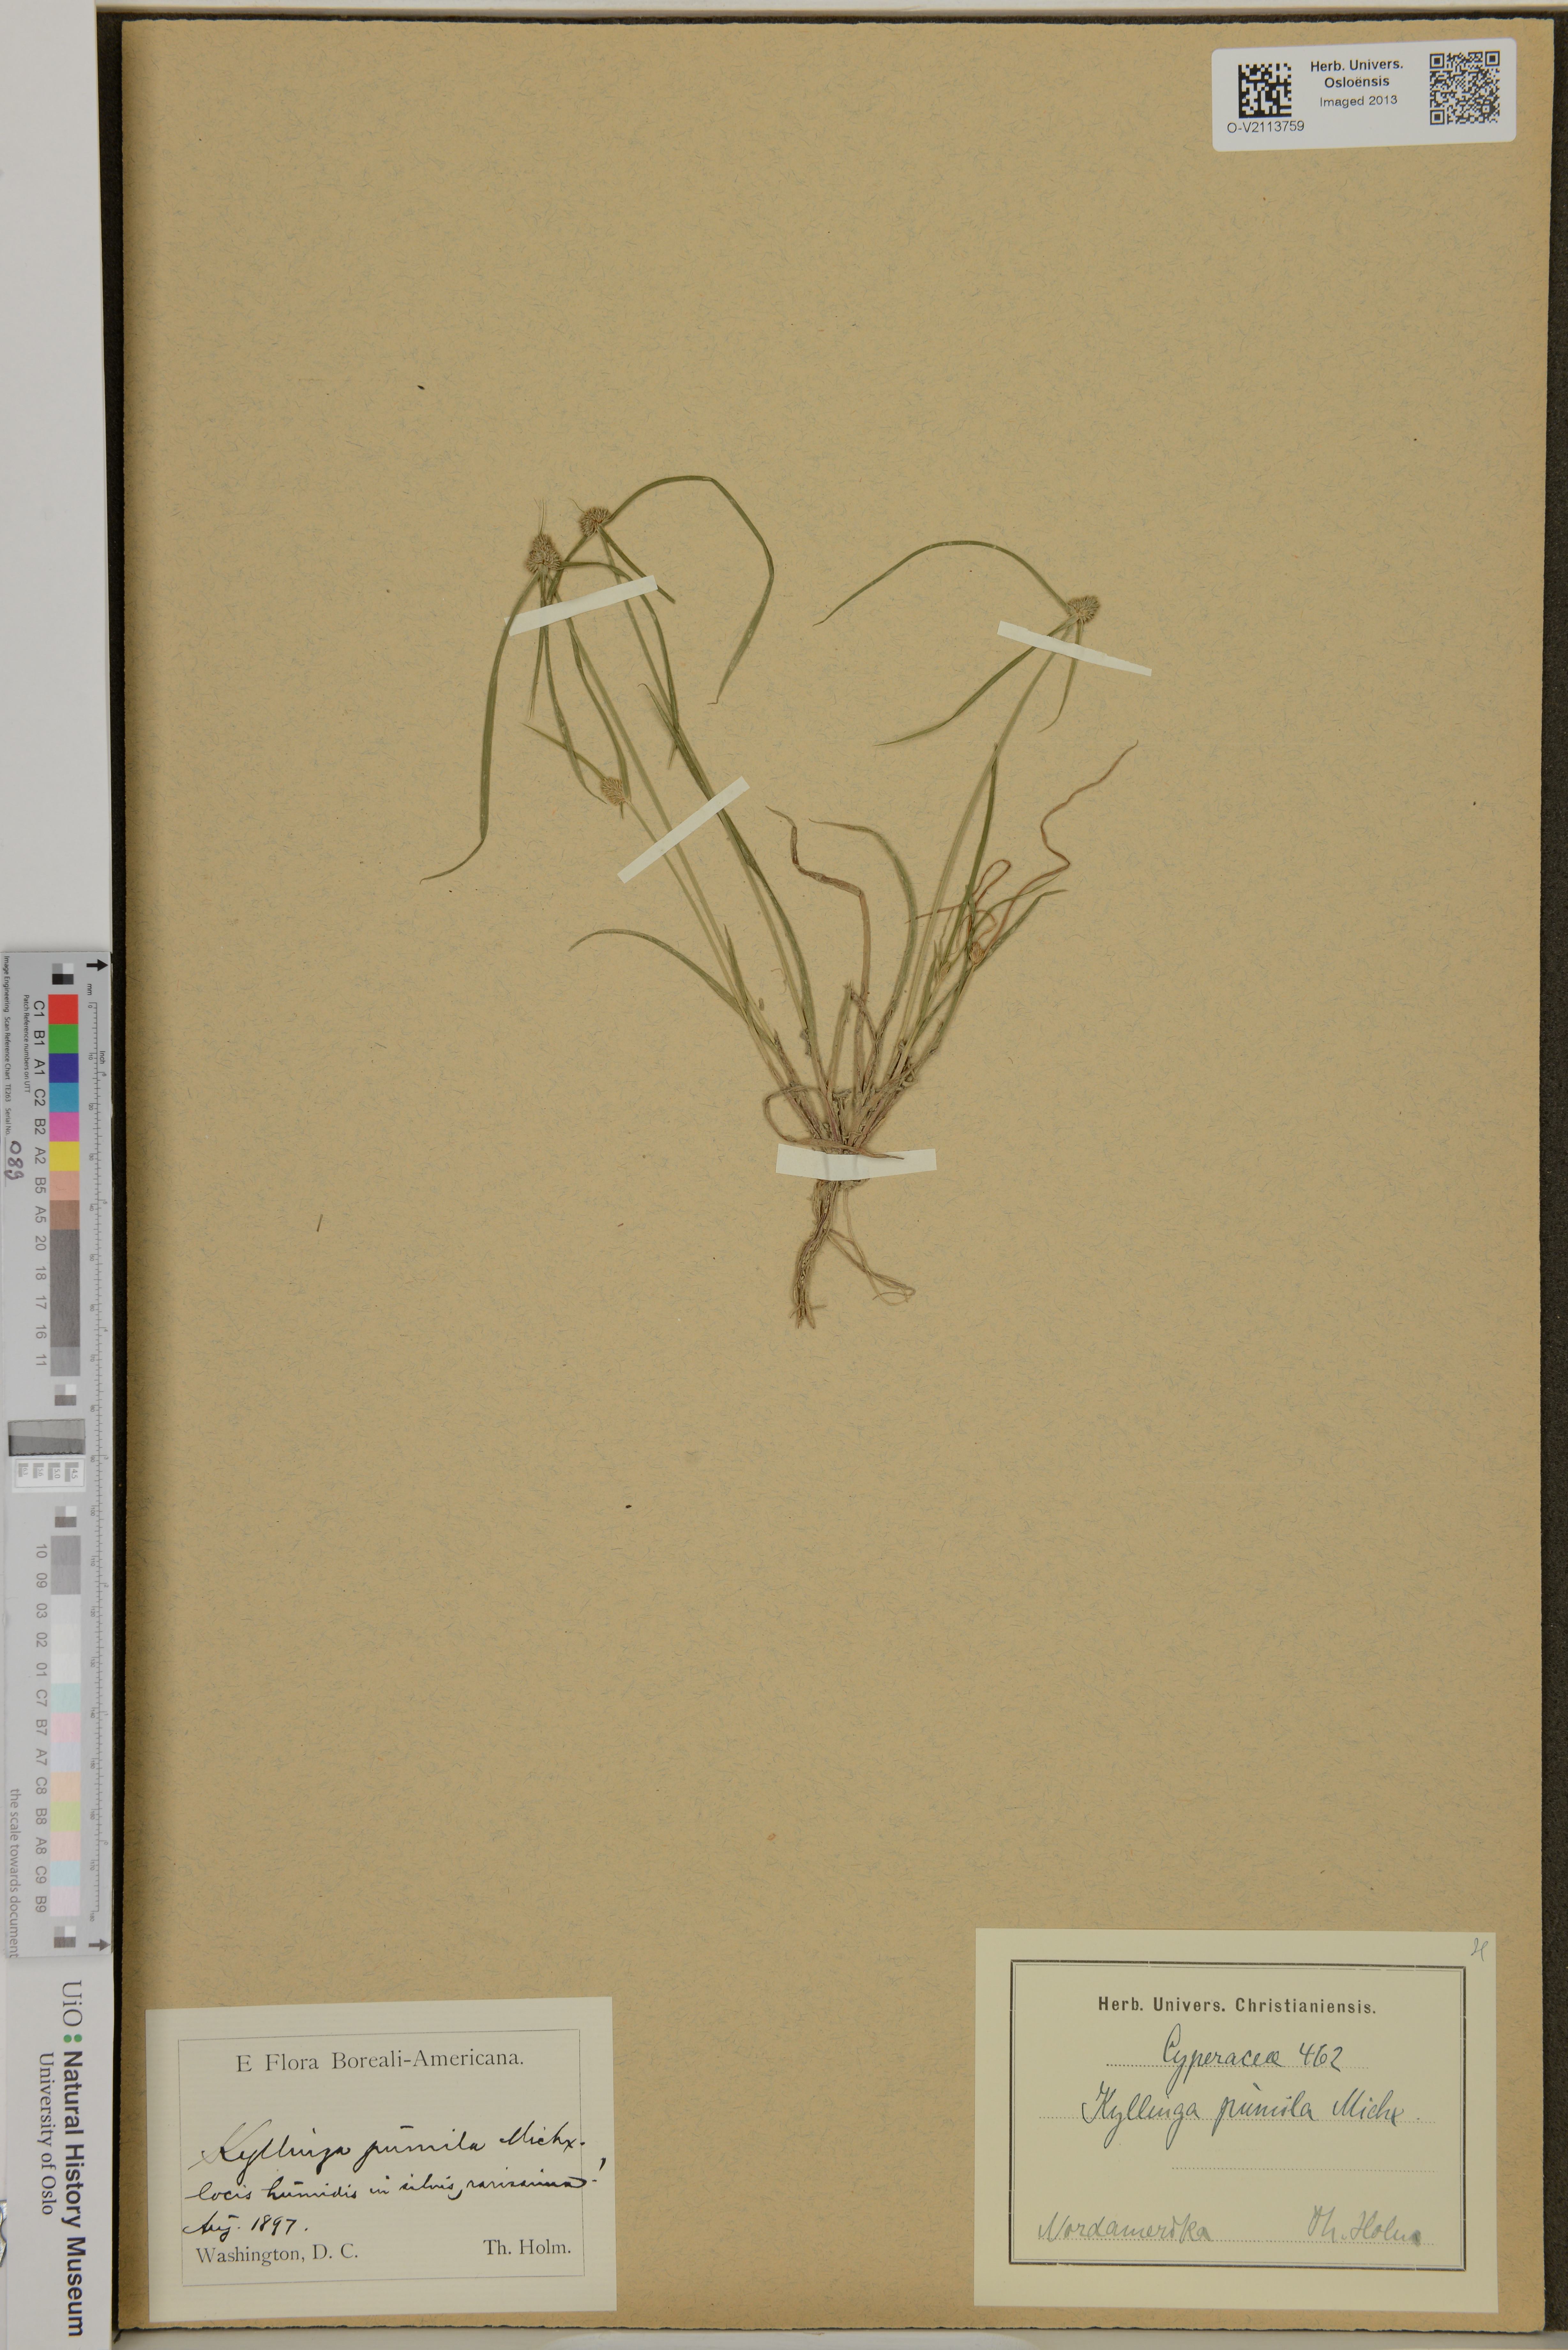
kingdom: Plantae
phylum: Tracheophyta
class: Liliopsida
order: Poales
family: Cyperaceae
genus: Cyperus
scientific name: Cyperus
